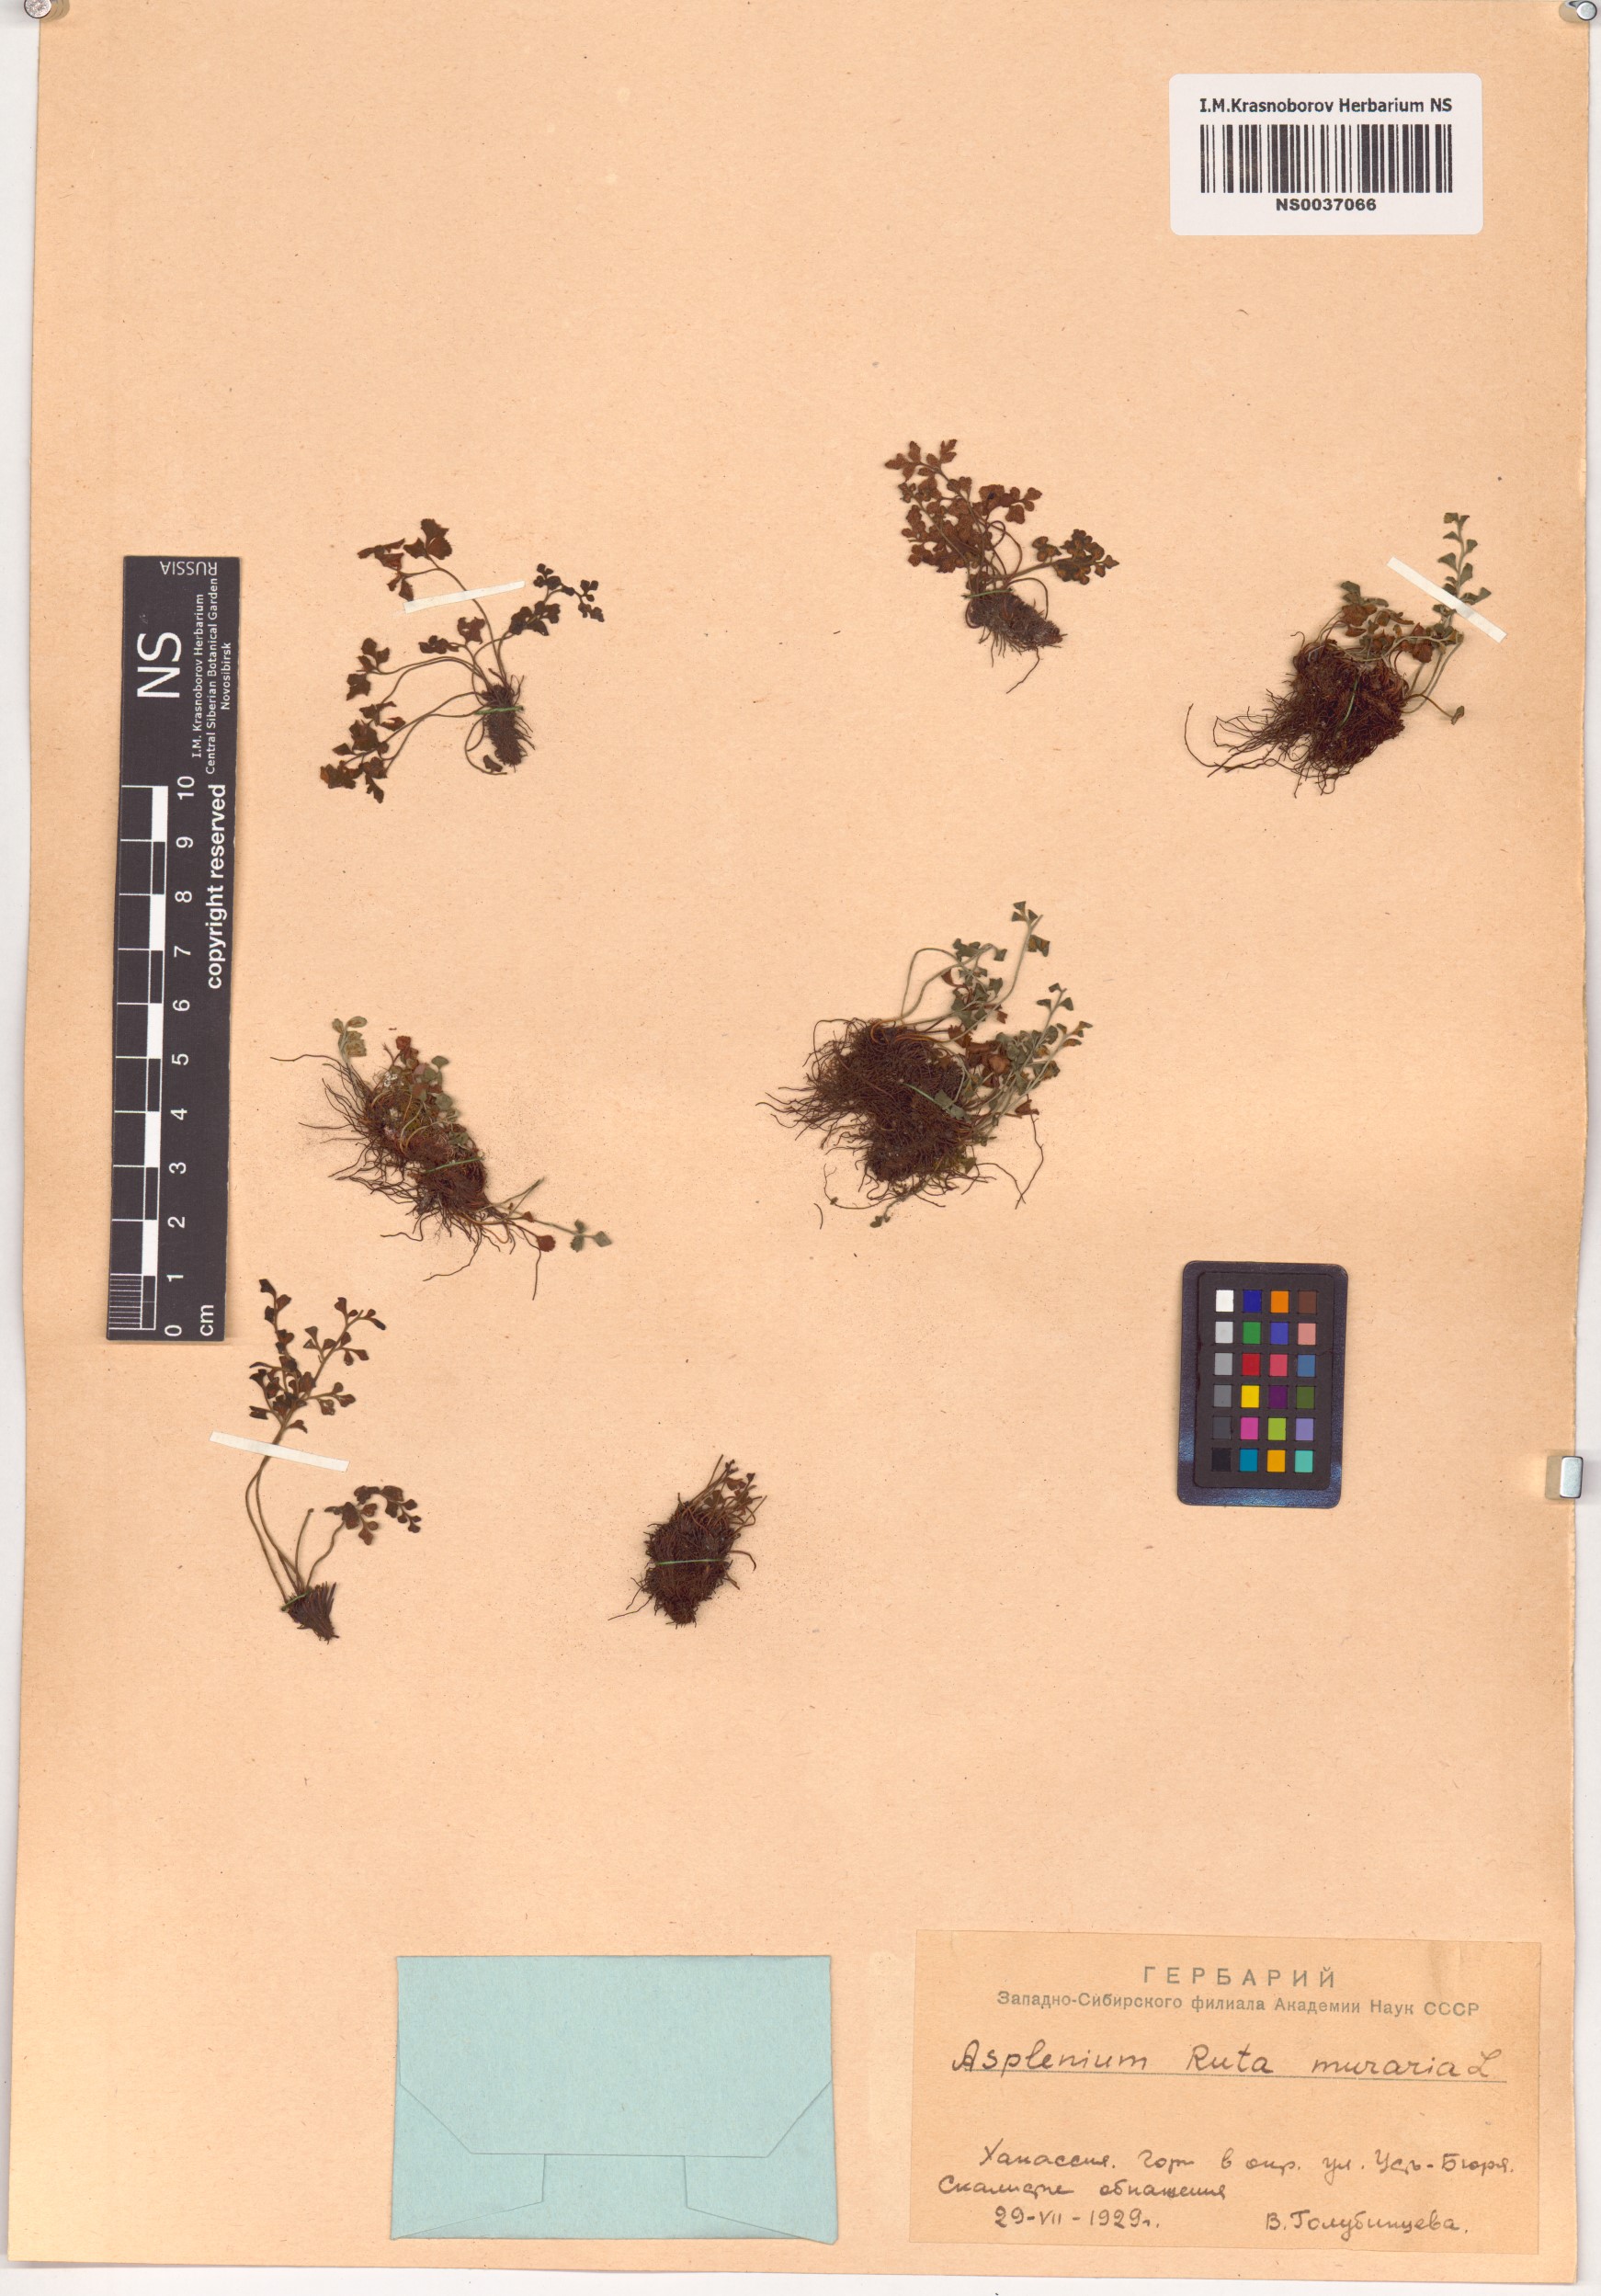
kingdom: Plantae
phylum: Tracheophyta
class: Polypodiopsida
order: Polypodiales
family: Aspleniaceae
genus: Asplenium
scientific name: Asplenium ruta-muraria
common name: Wall-rue
